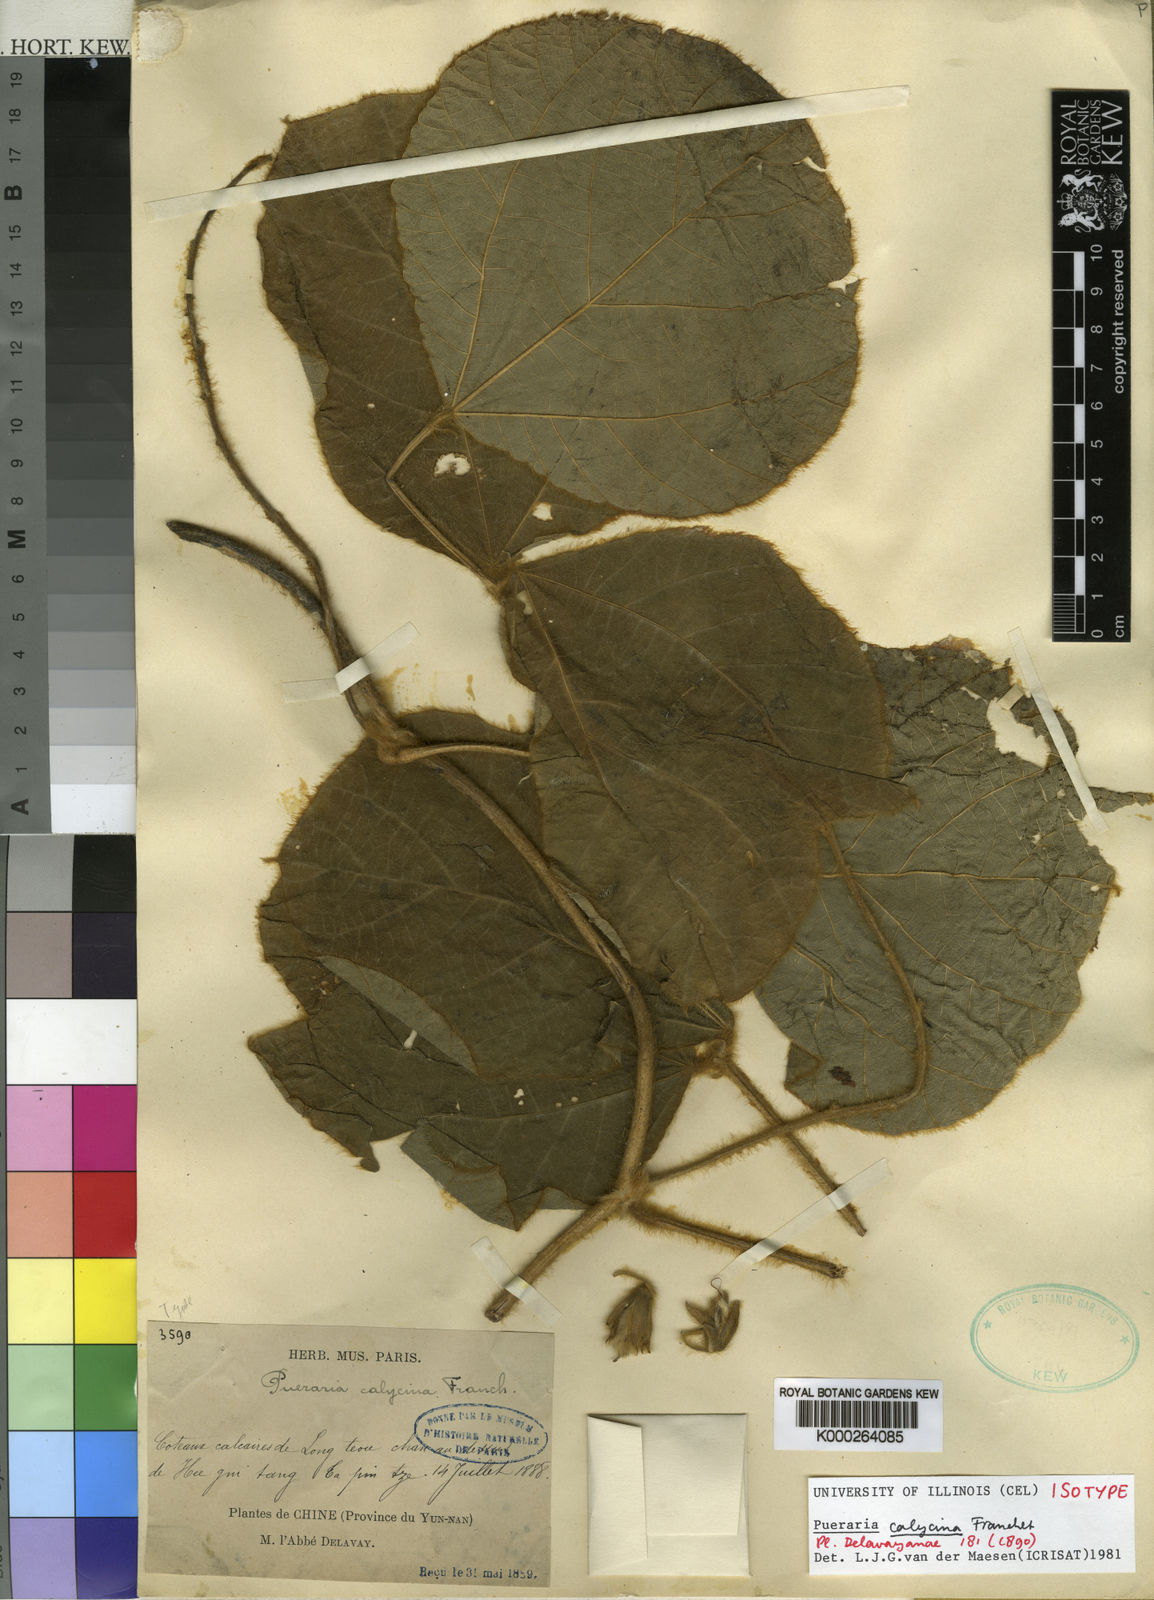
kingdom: Plantae
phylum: Tracheophyta
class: Magnoliopsida
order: Fabales
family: Fabaceae
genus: Pueraria
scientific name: Pueraria calycina
